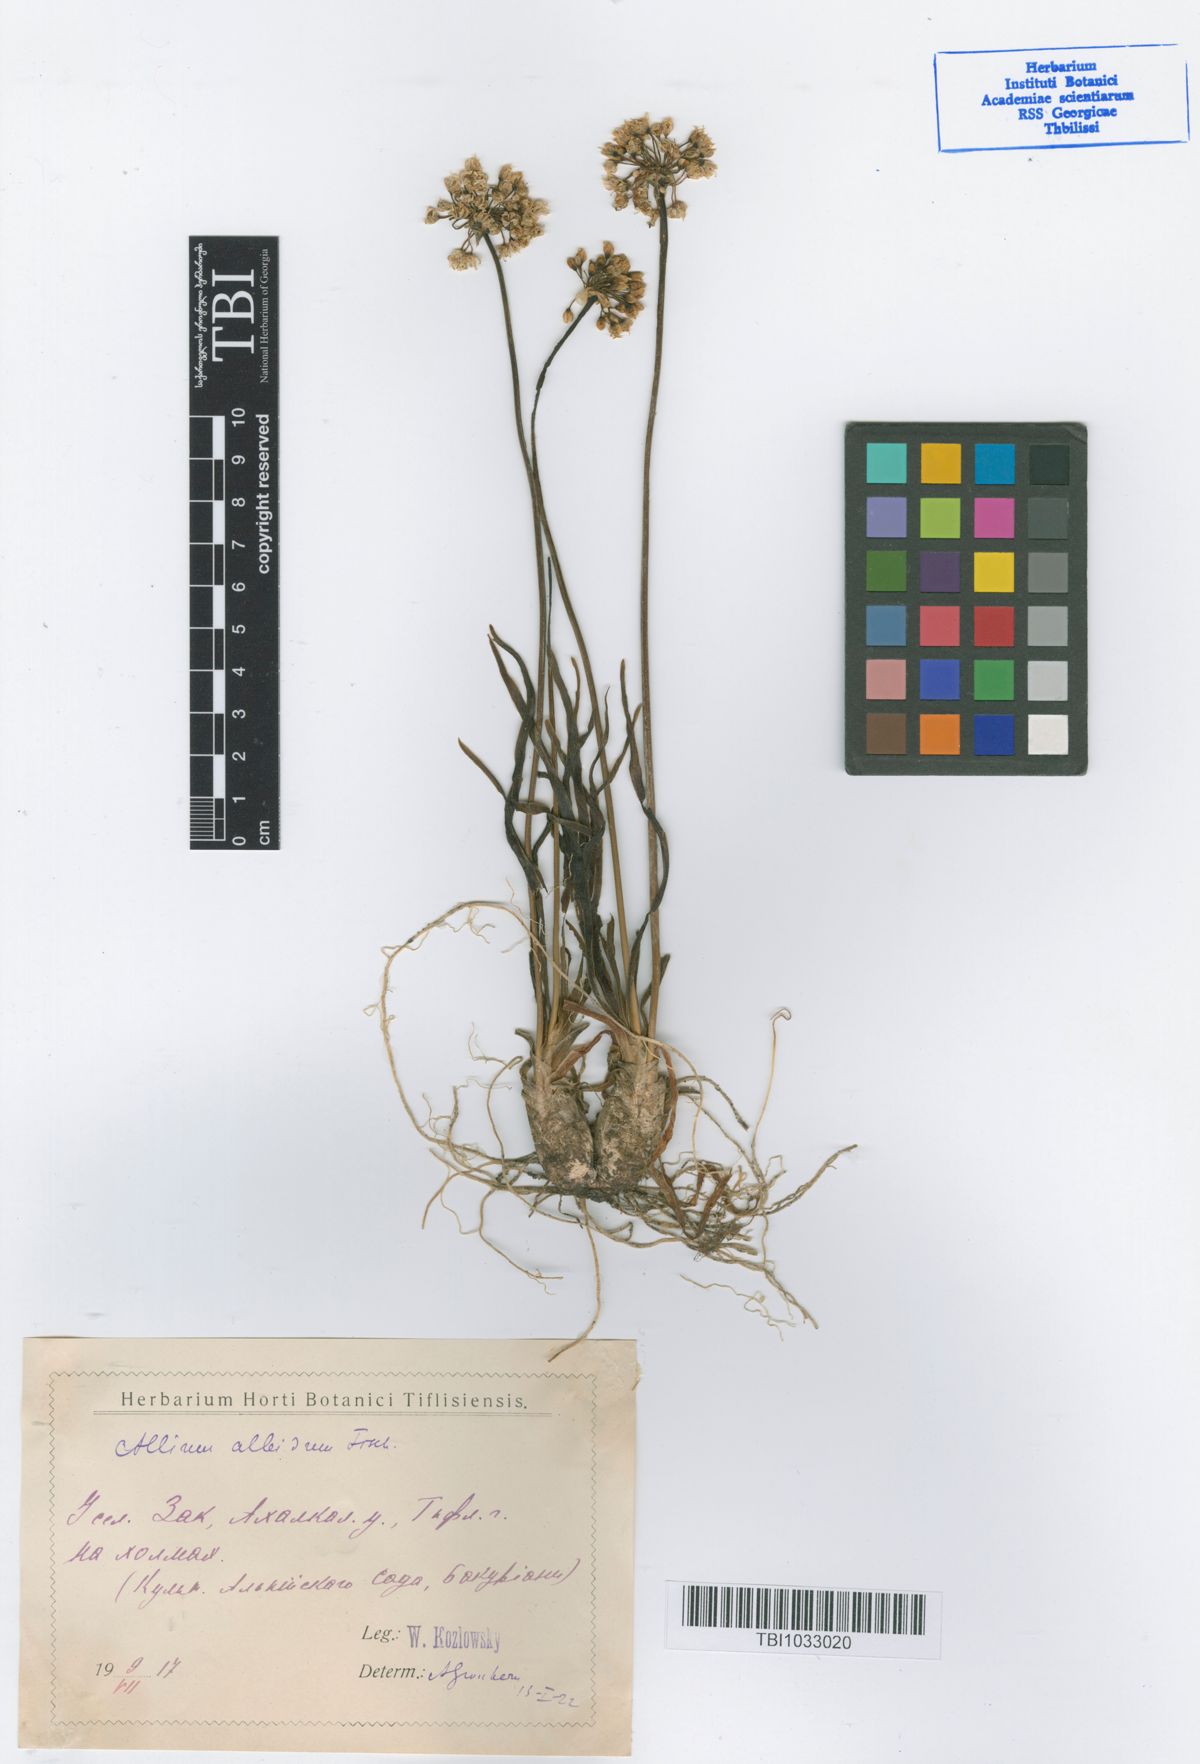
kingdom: Plantae
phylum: Tracheophyta
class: Liliopsida
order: Asparagales
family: Amaryllidaceae
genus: Allium
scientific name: Allium denudatum
